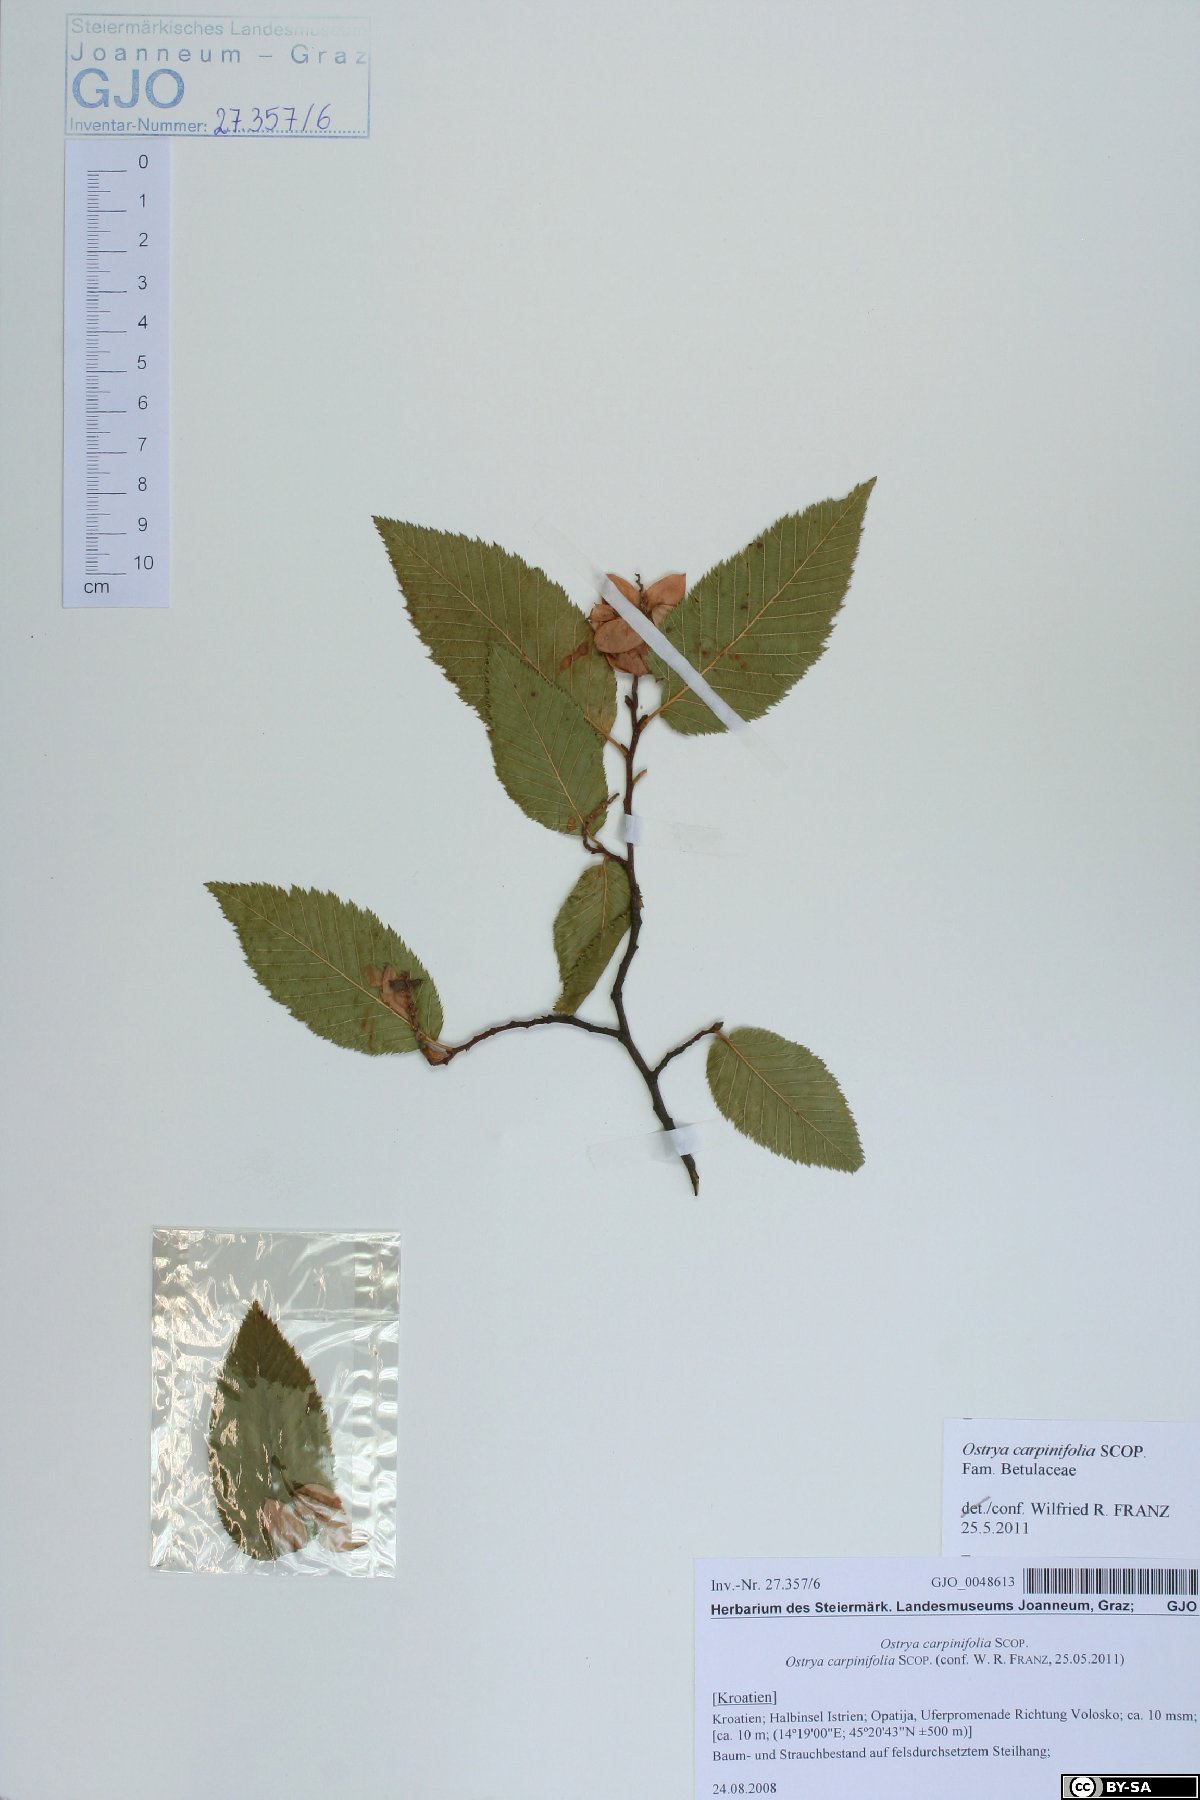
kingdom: Plantae
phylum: Tracheophyta
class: Magnoliopsida
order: Fagales
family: Betulaceae
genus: Ostrya
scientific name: Ostrya carpinifolia
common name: European hop-hornbeam
